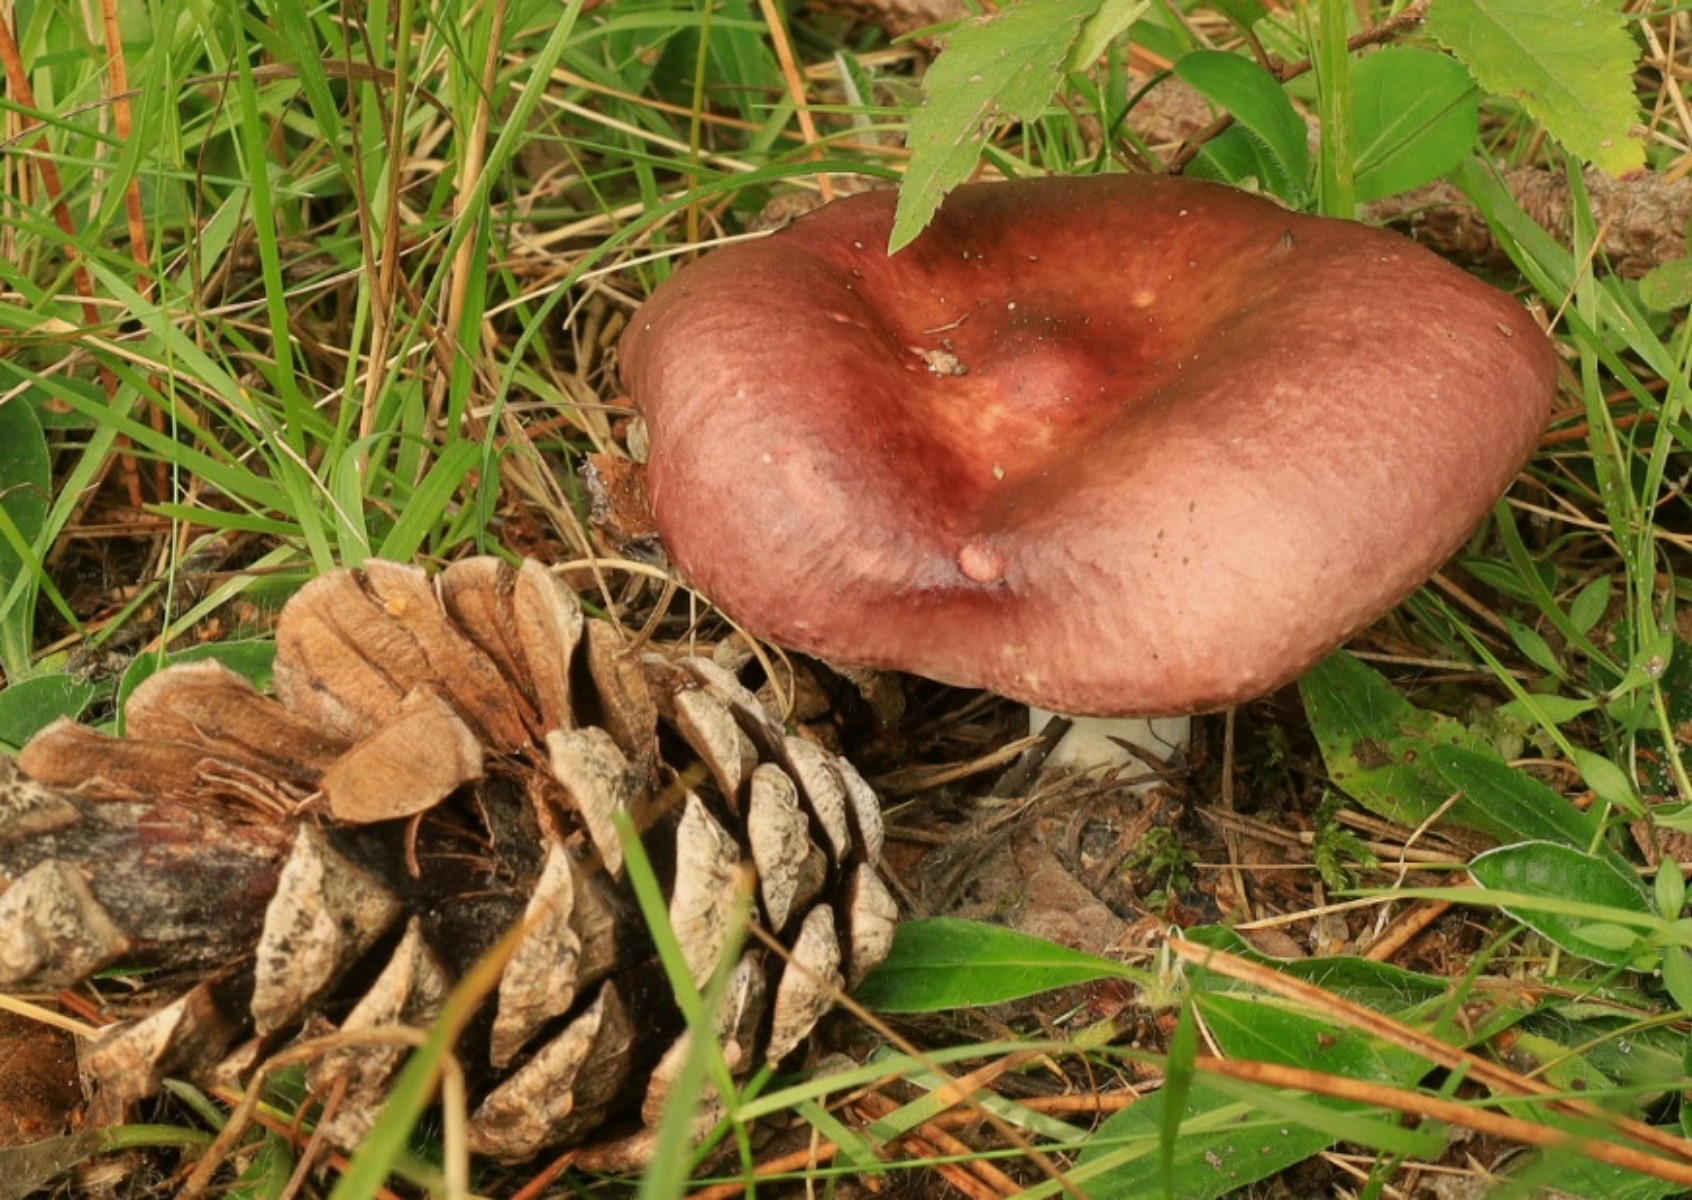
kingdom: Fungi
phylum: Basidiomycota
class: Agaricomycetes
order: Russulales
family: Russulaceae
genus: Russula
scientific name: Russula caerulea
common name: puklet skørhat
